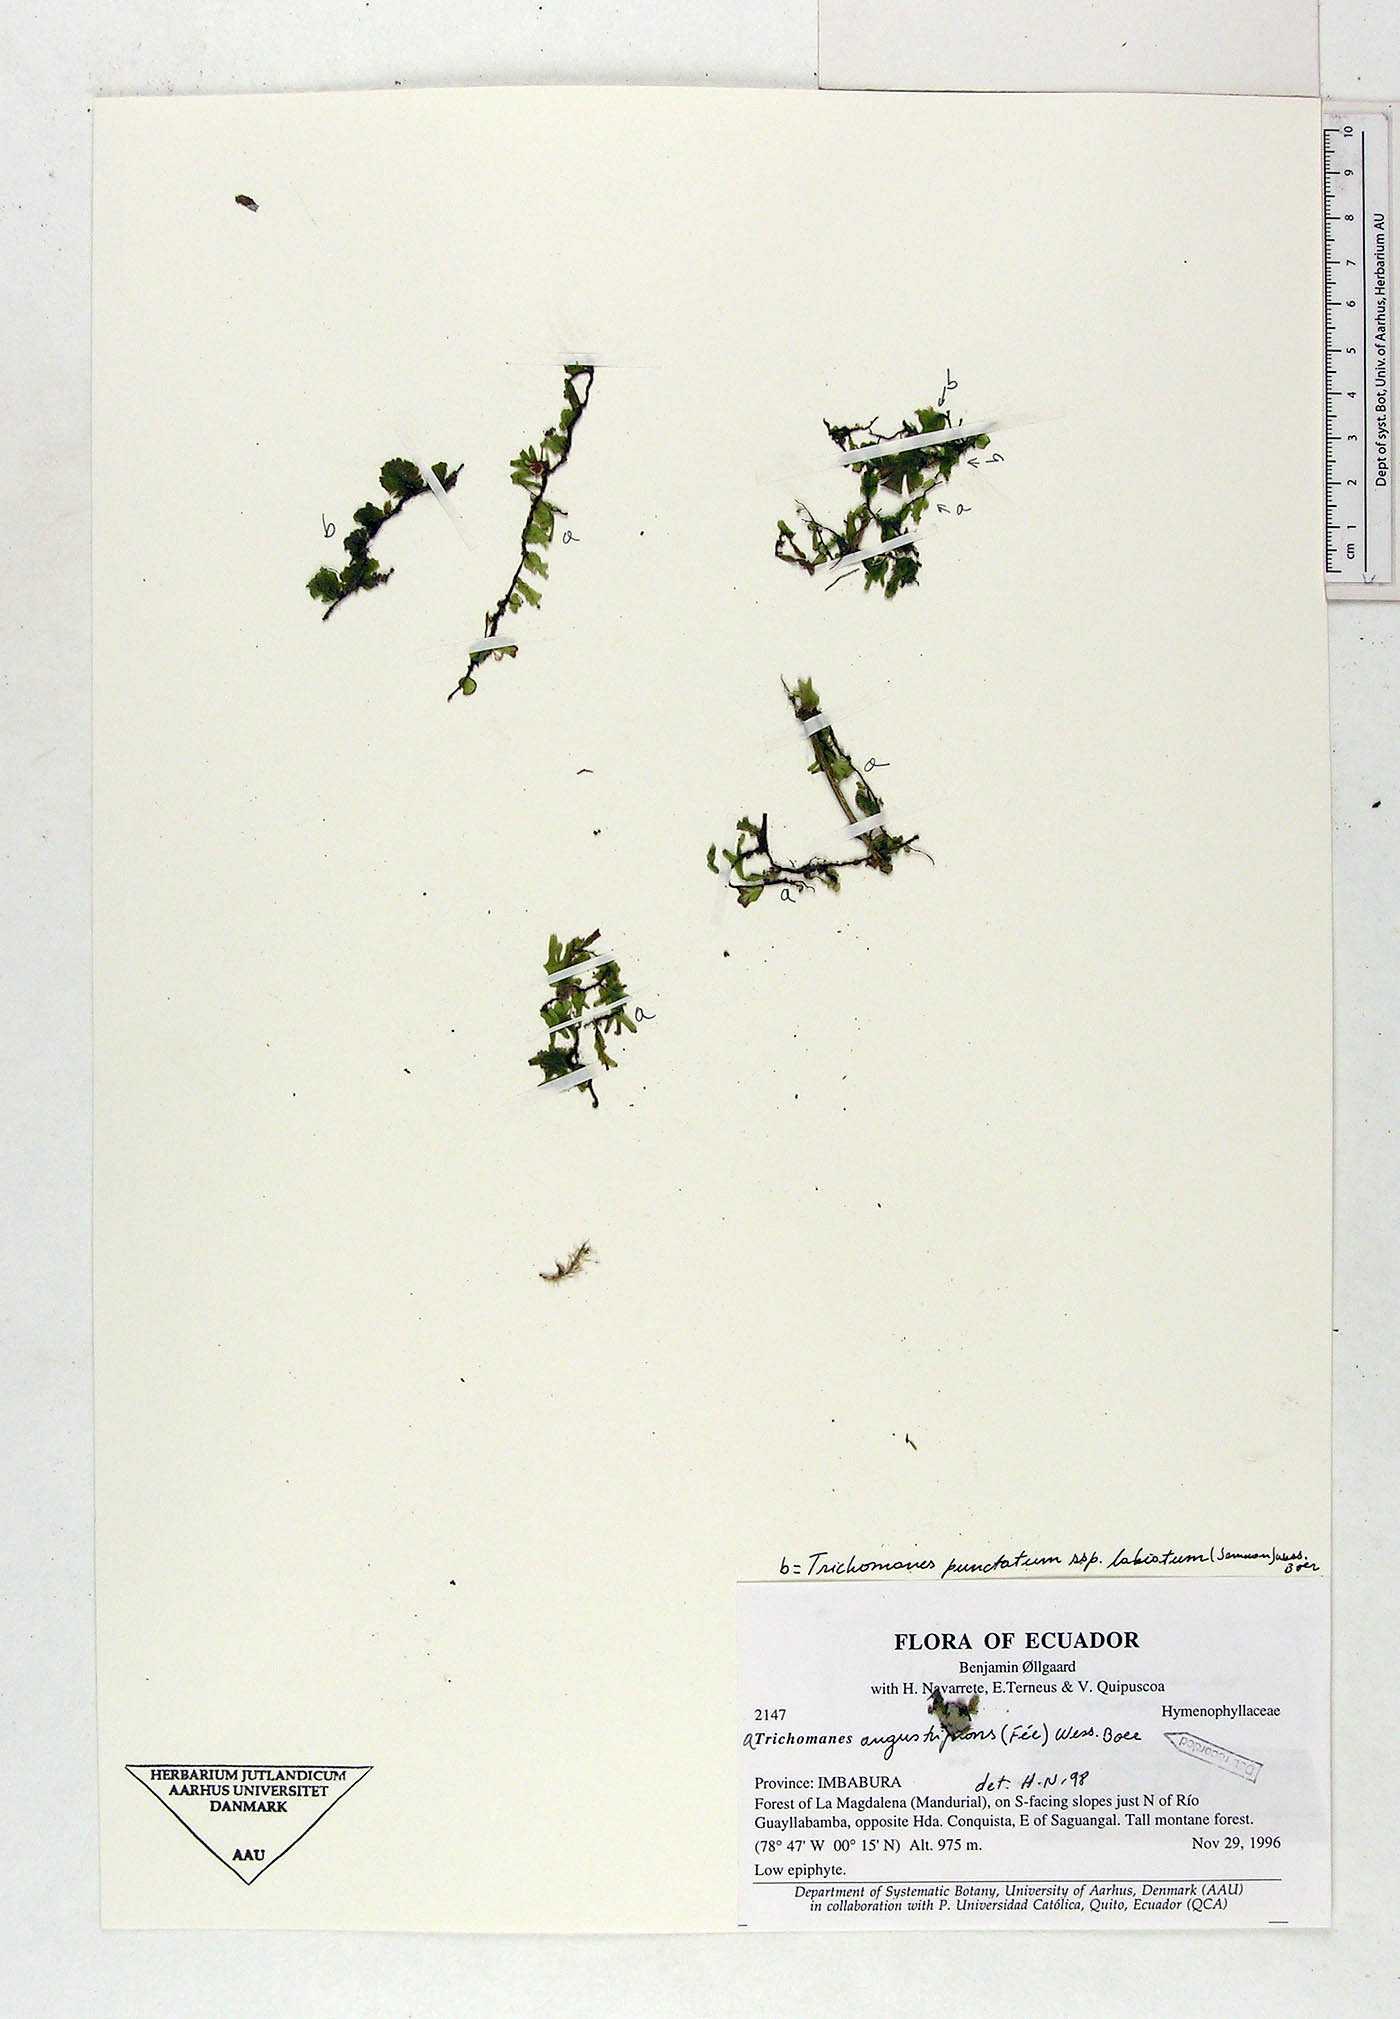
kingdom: Plantae
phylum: Tracheophyta
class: Polypodiopsida
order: Hymenophyllales
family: Hymenophyllaceae
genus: Didymoglossum
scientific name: Didymoglossum angustifrons
